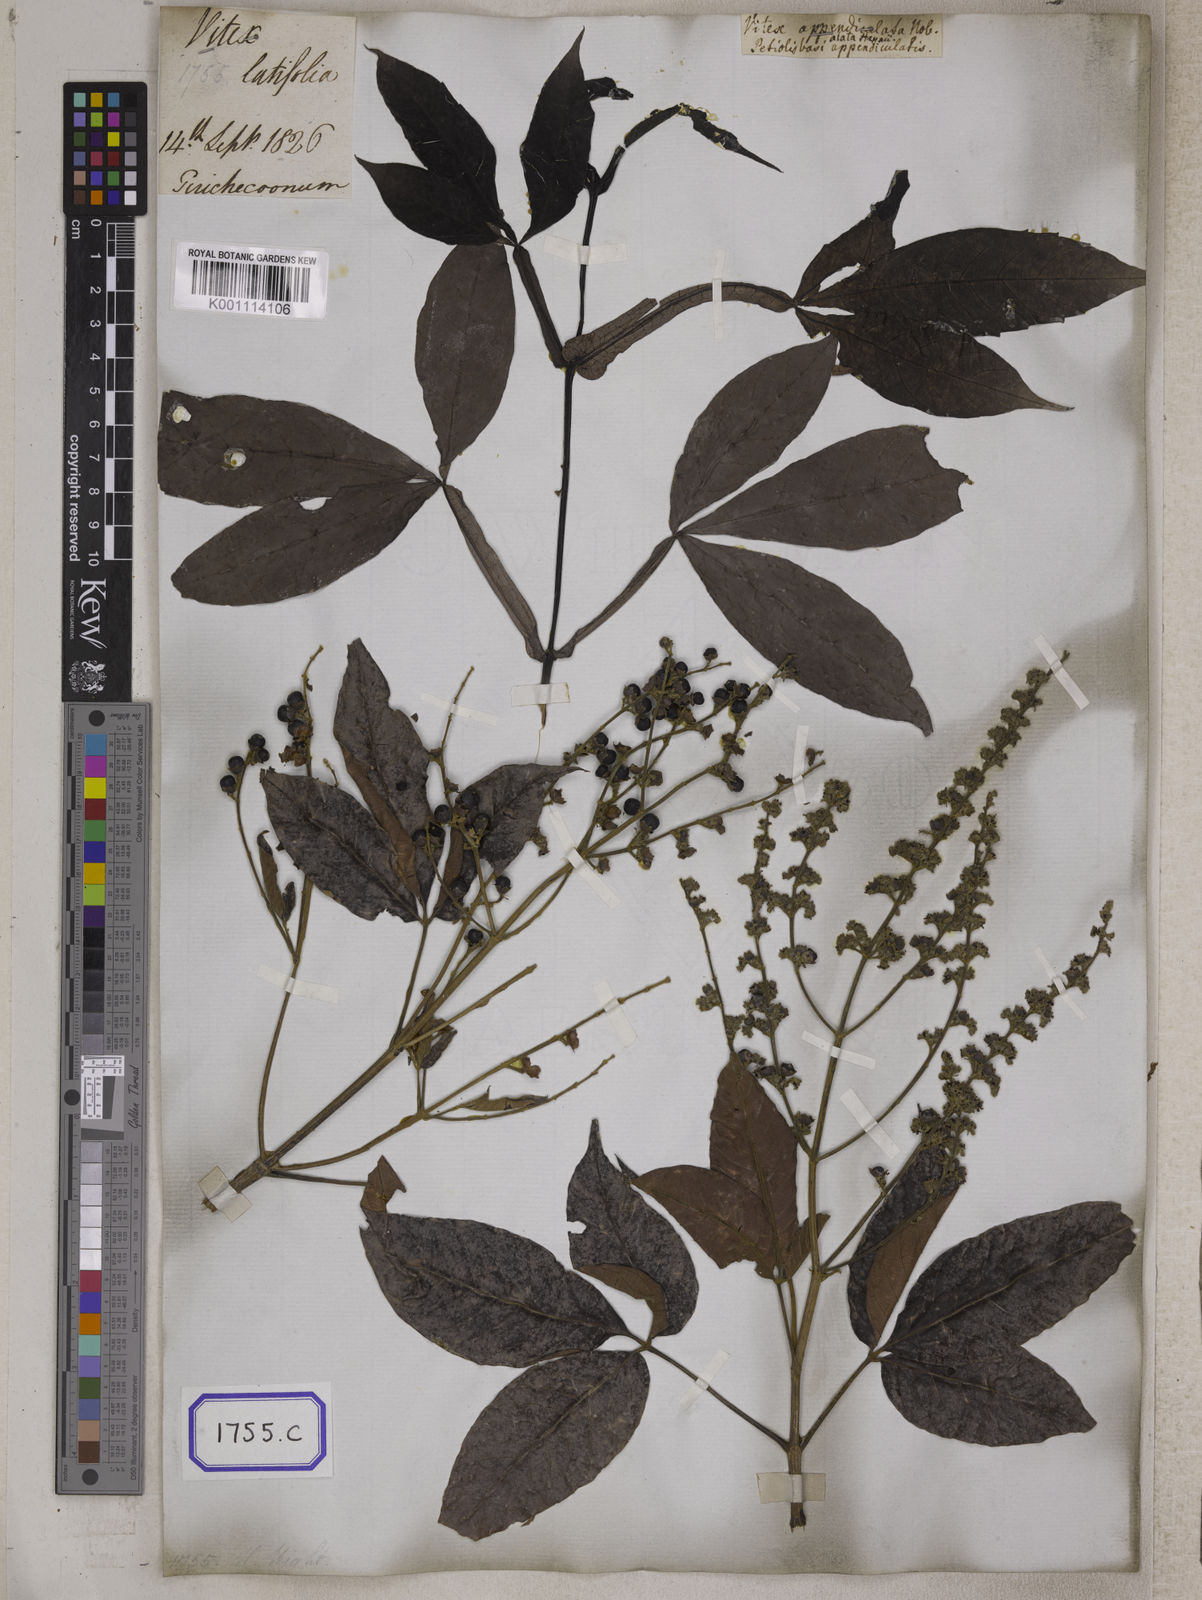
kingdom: Plantae
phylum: Tracheophyta
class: Magnoliopsida
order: Lamiales
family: Lamiaceae
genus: Vitex
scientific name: Vitex altissima
